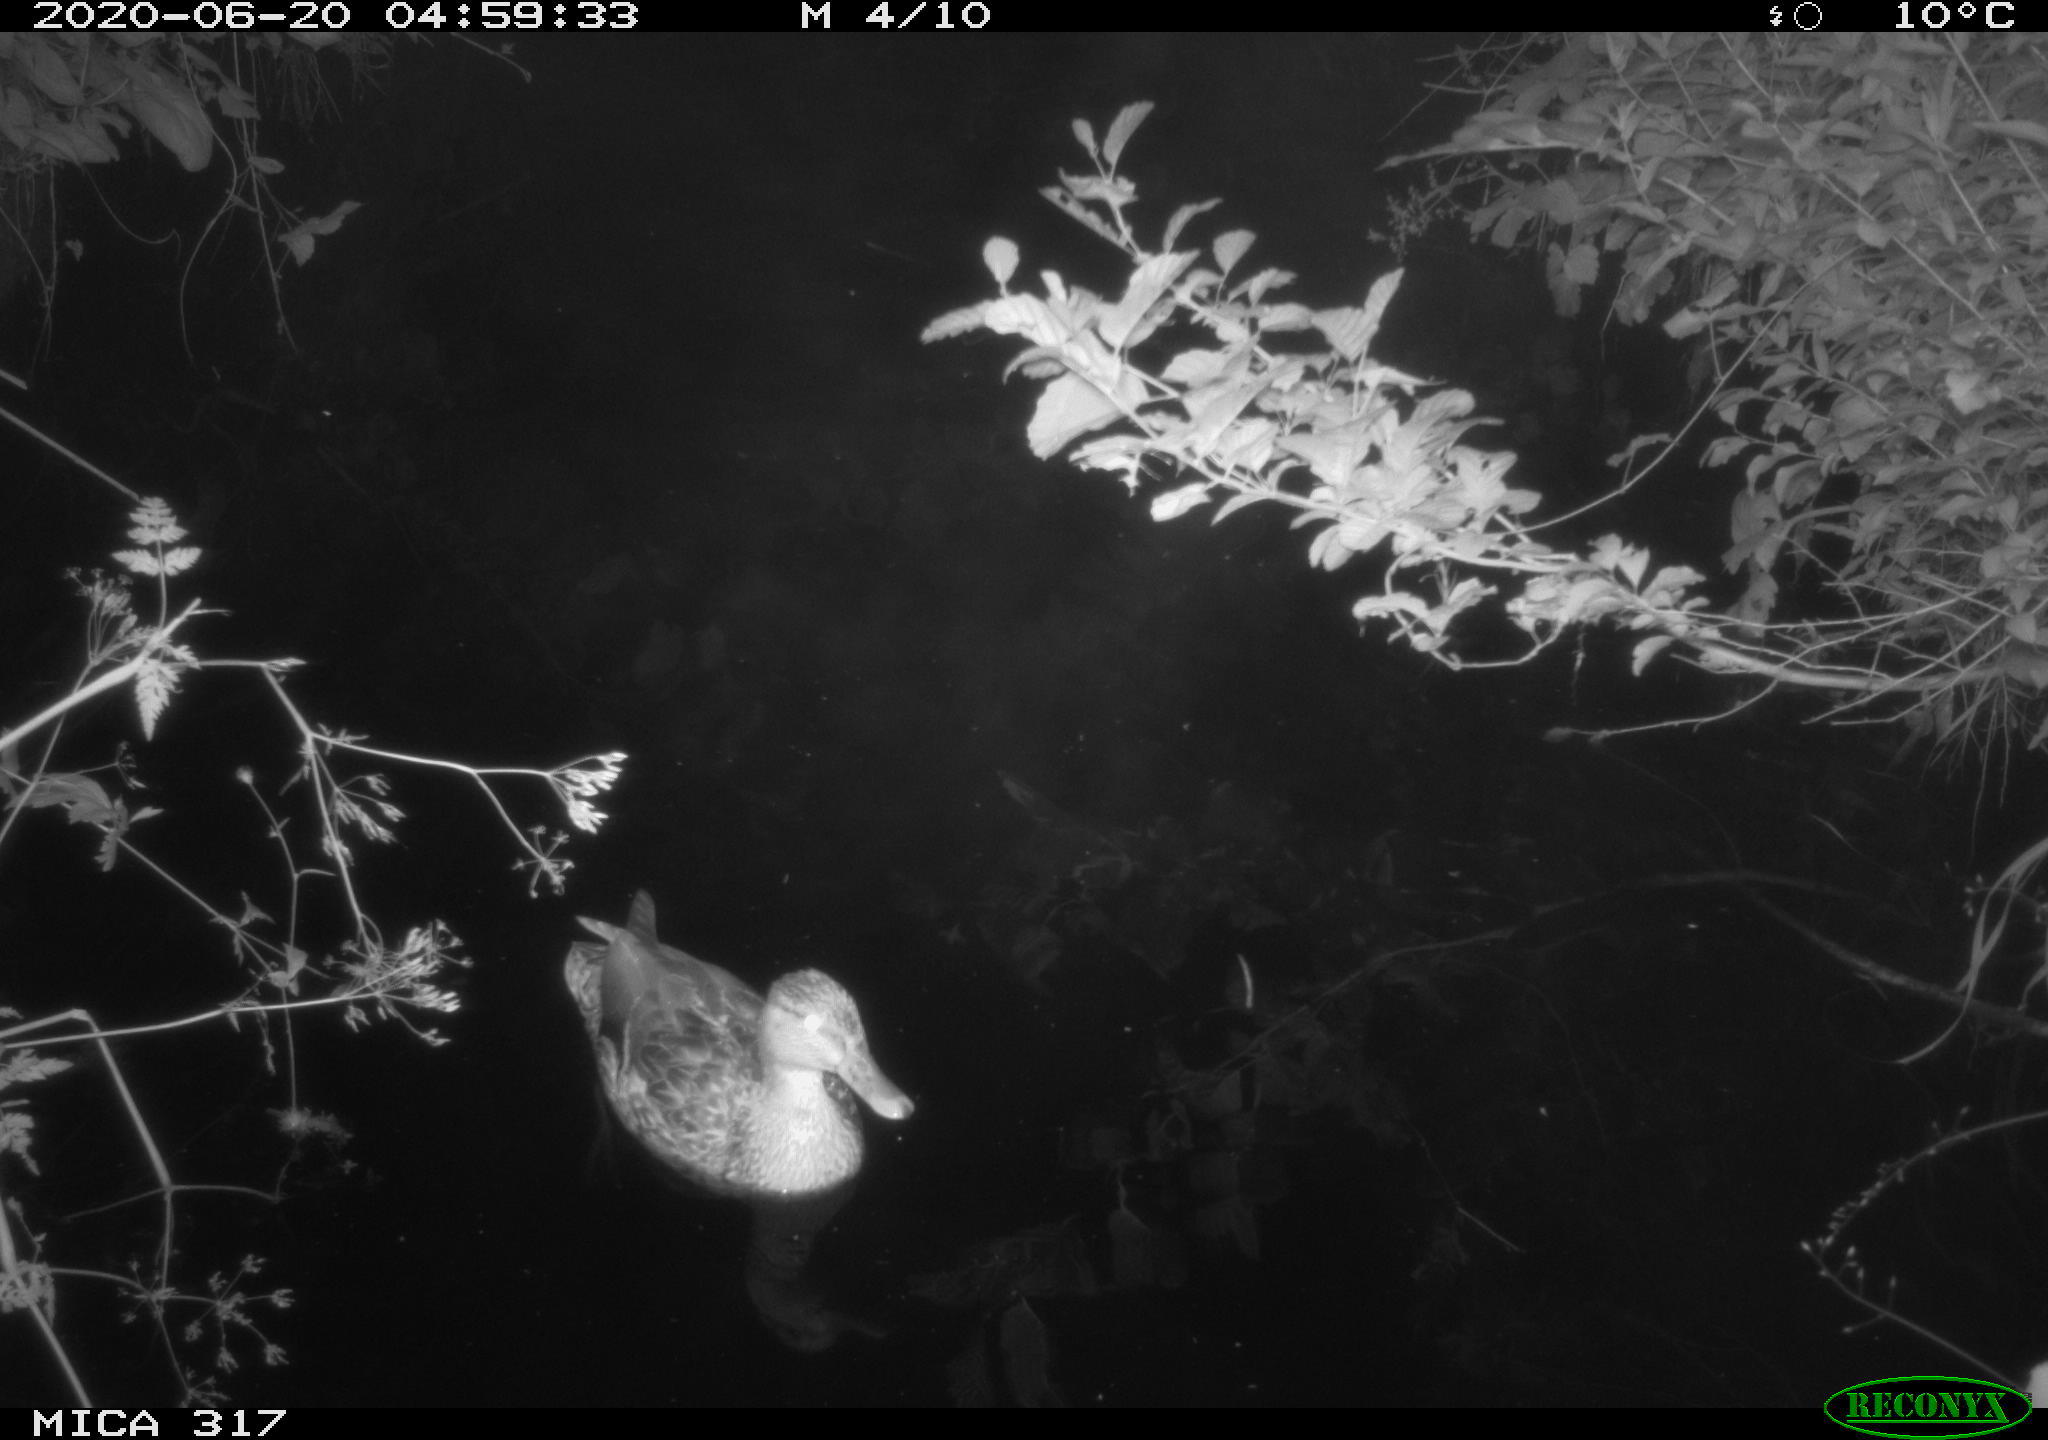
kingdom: Animalia
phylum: Chordata
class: Aves
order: Anseriformes
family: Anatidae
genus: Anas
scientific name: Anas platyrhynchos
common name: Mallard
